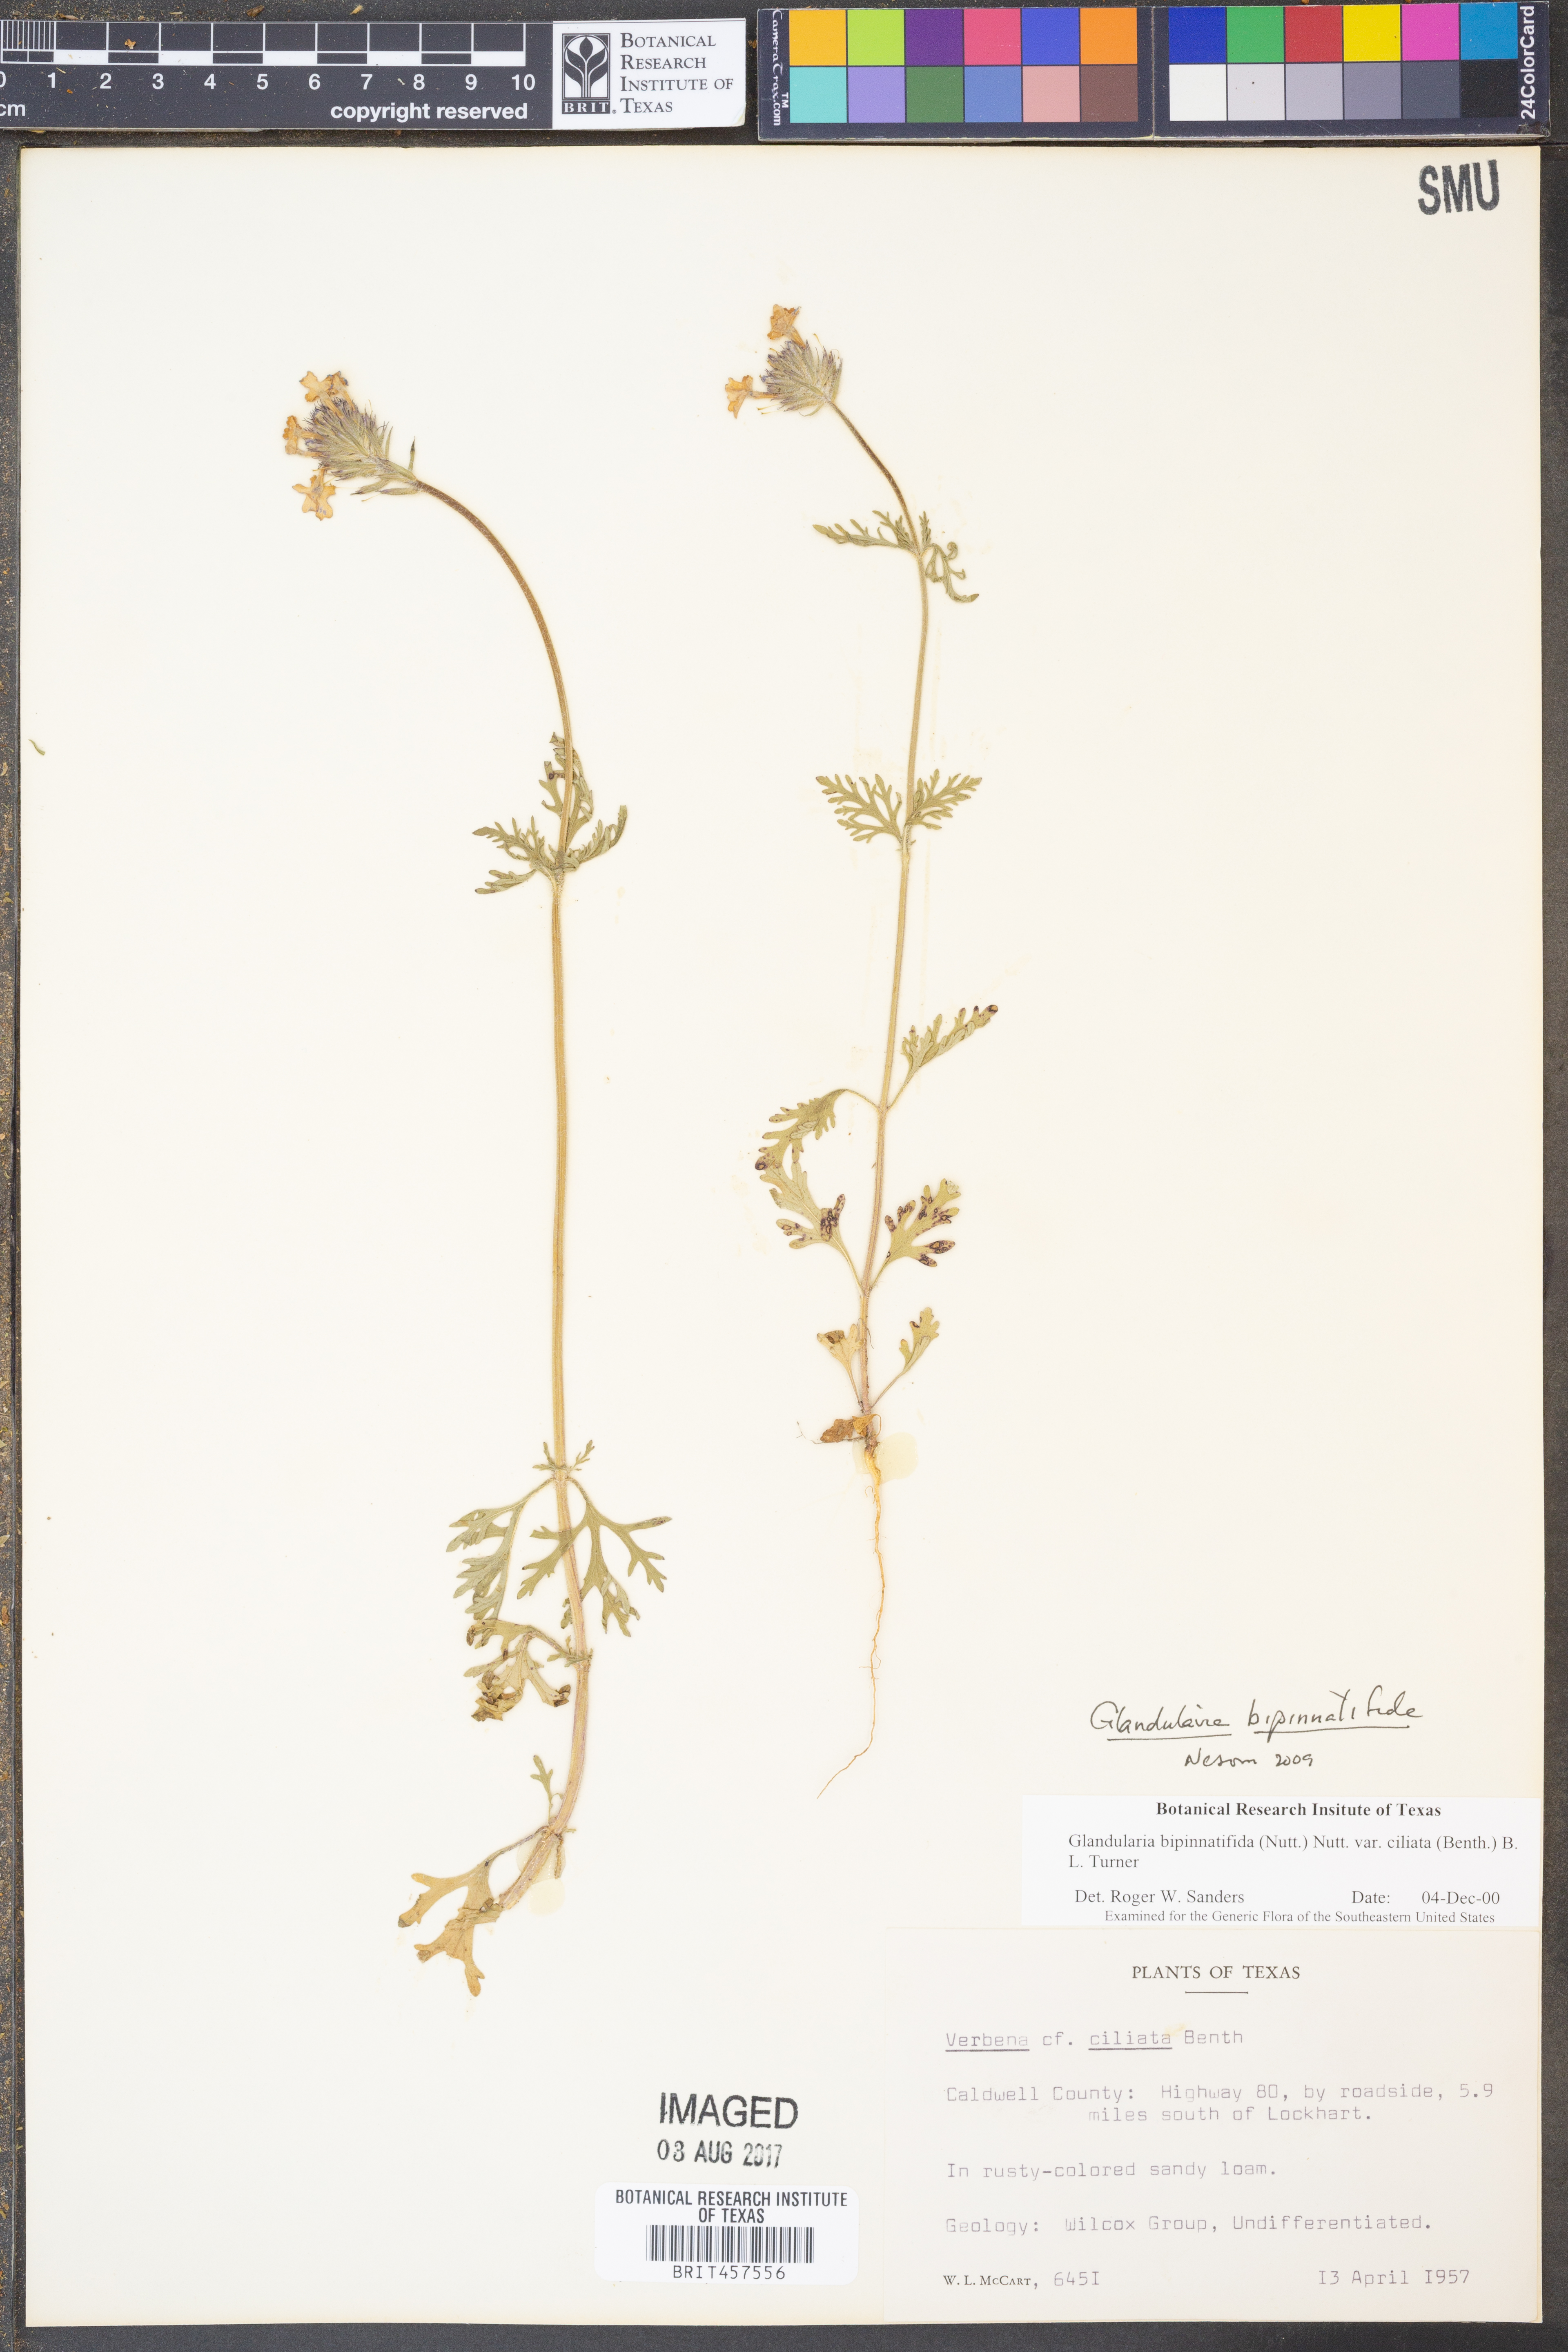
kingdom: Plantae
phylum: Tracheophyta
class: Magnoliopsida
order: Lamiales
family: Verbenaceae
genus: Verbena
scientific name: Verbena bipinnatifida
